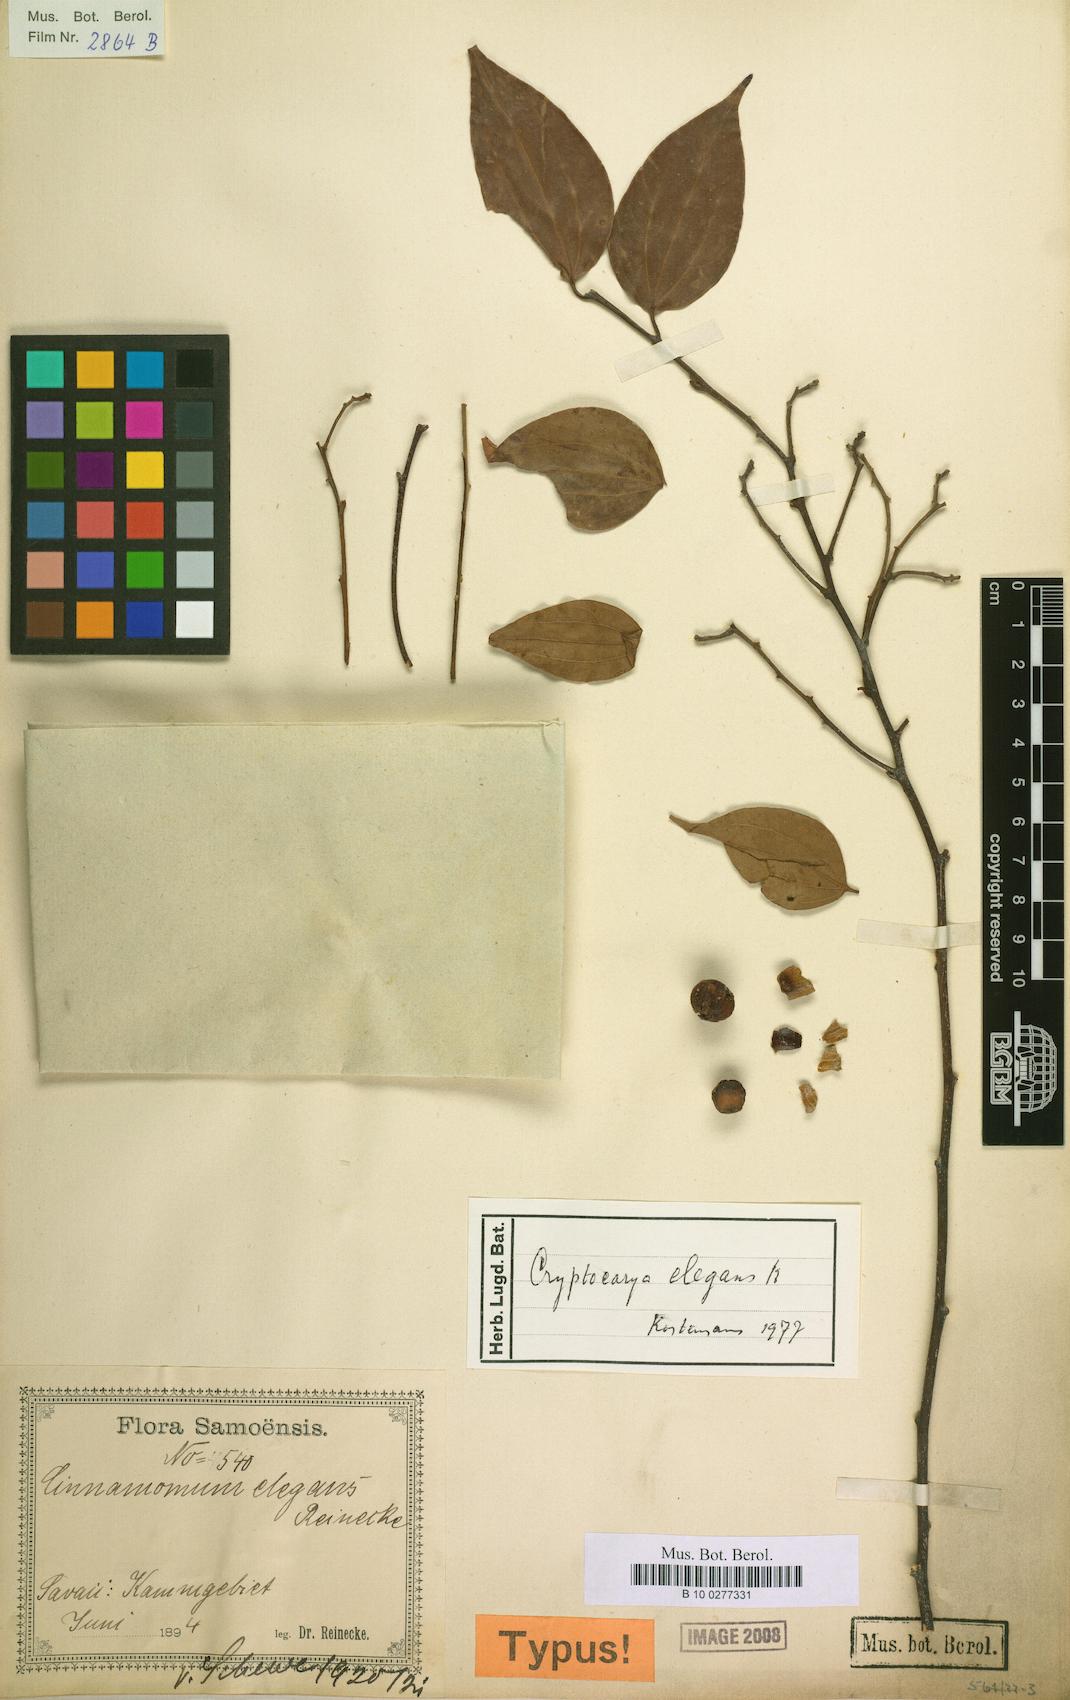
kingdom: Plantae
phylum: Tracheophyta
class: Magnoliopsida
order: Laurales
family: Lauraceae
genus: Cryptocarya
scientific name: Cryptocarya elegans
